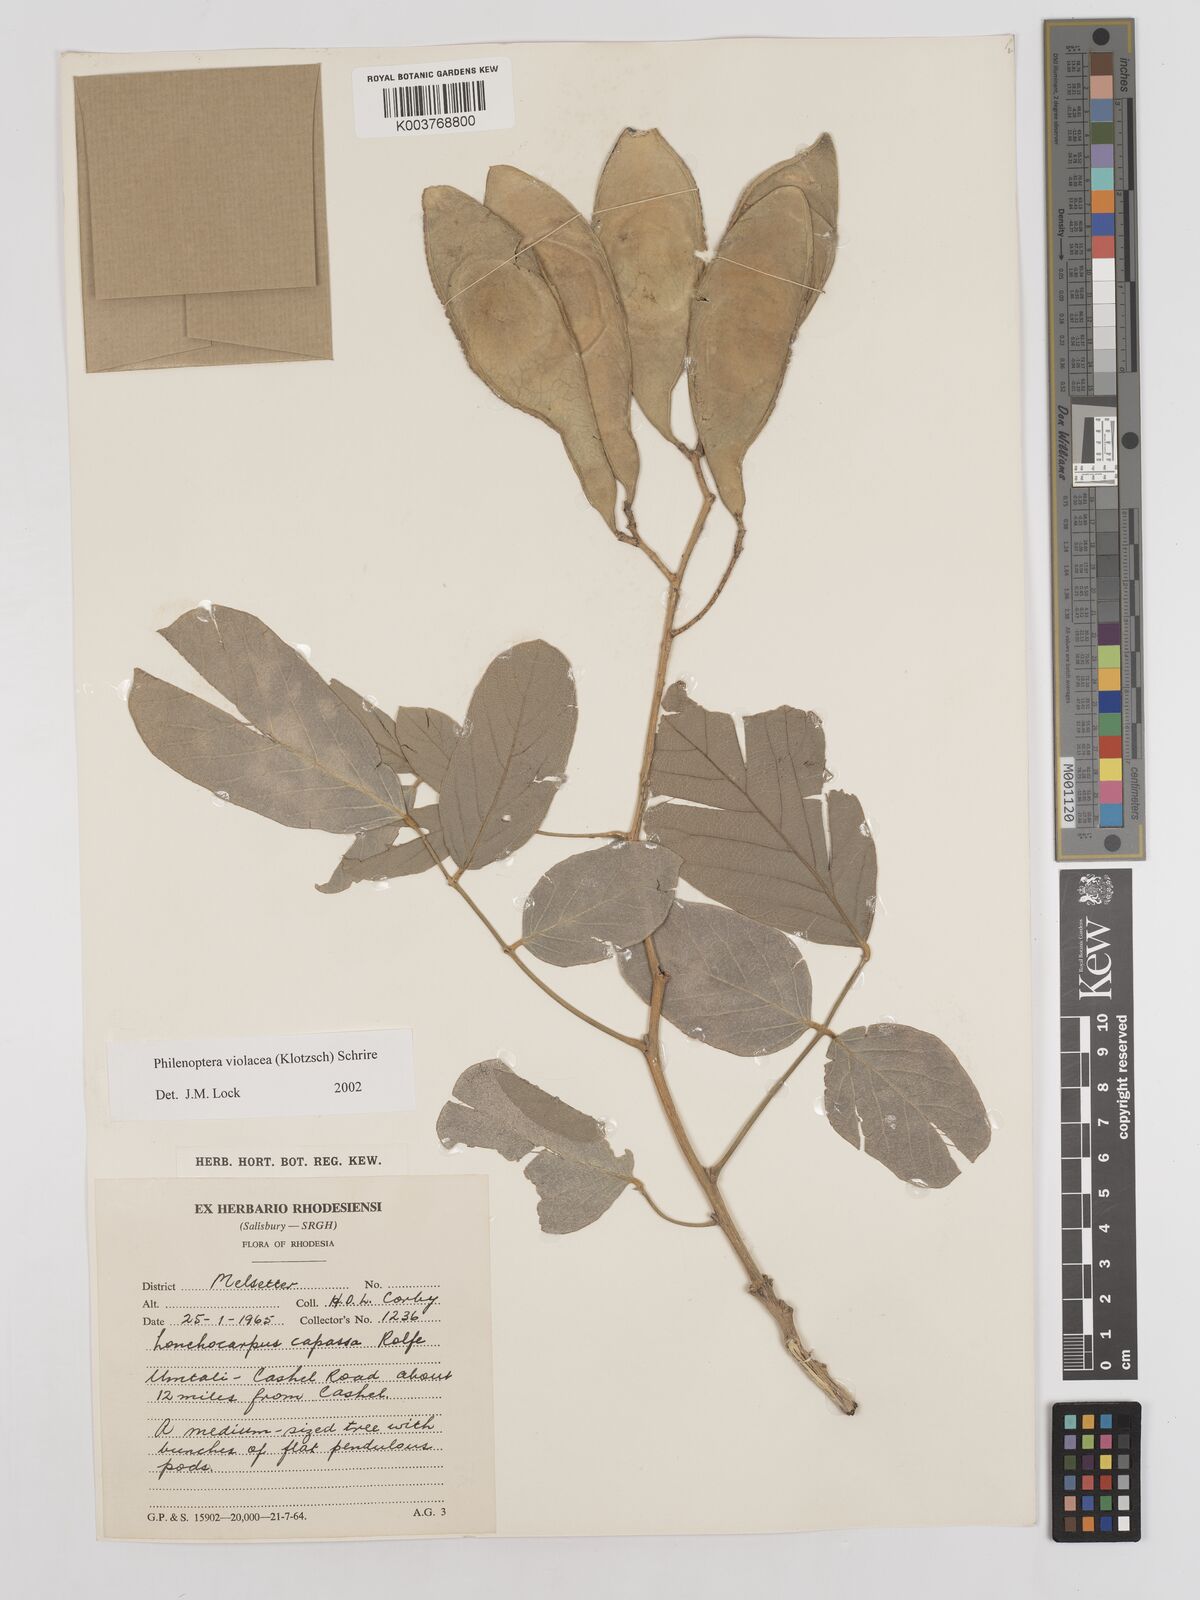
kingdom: Plantae
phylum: Tracheophyta
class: Magnoliopsida
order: Fabales
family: Fabaceae
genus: Philenoptera
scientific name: Philenoptera violacea
